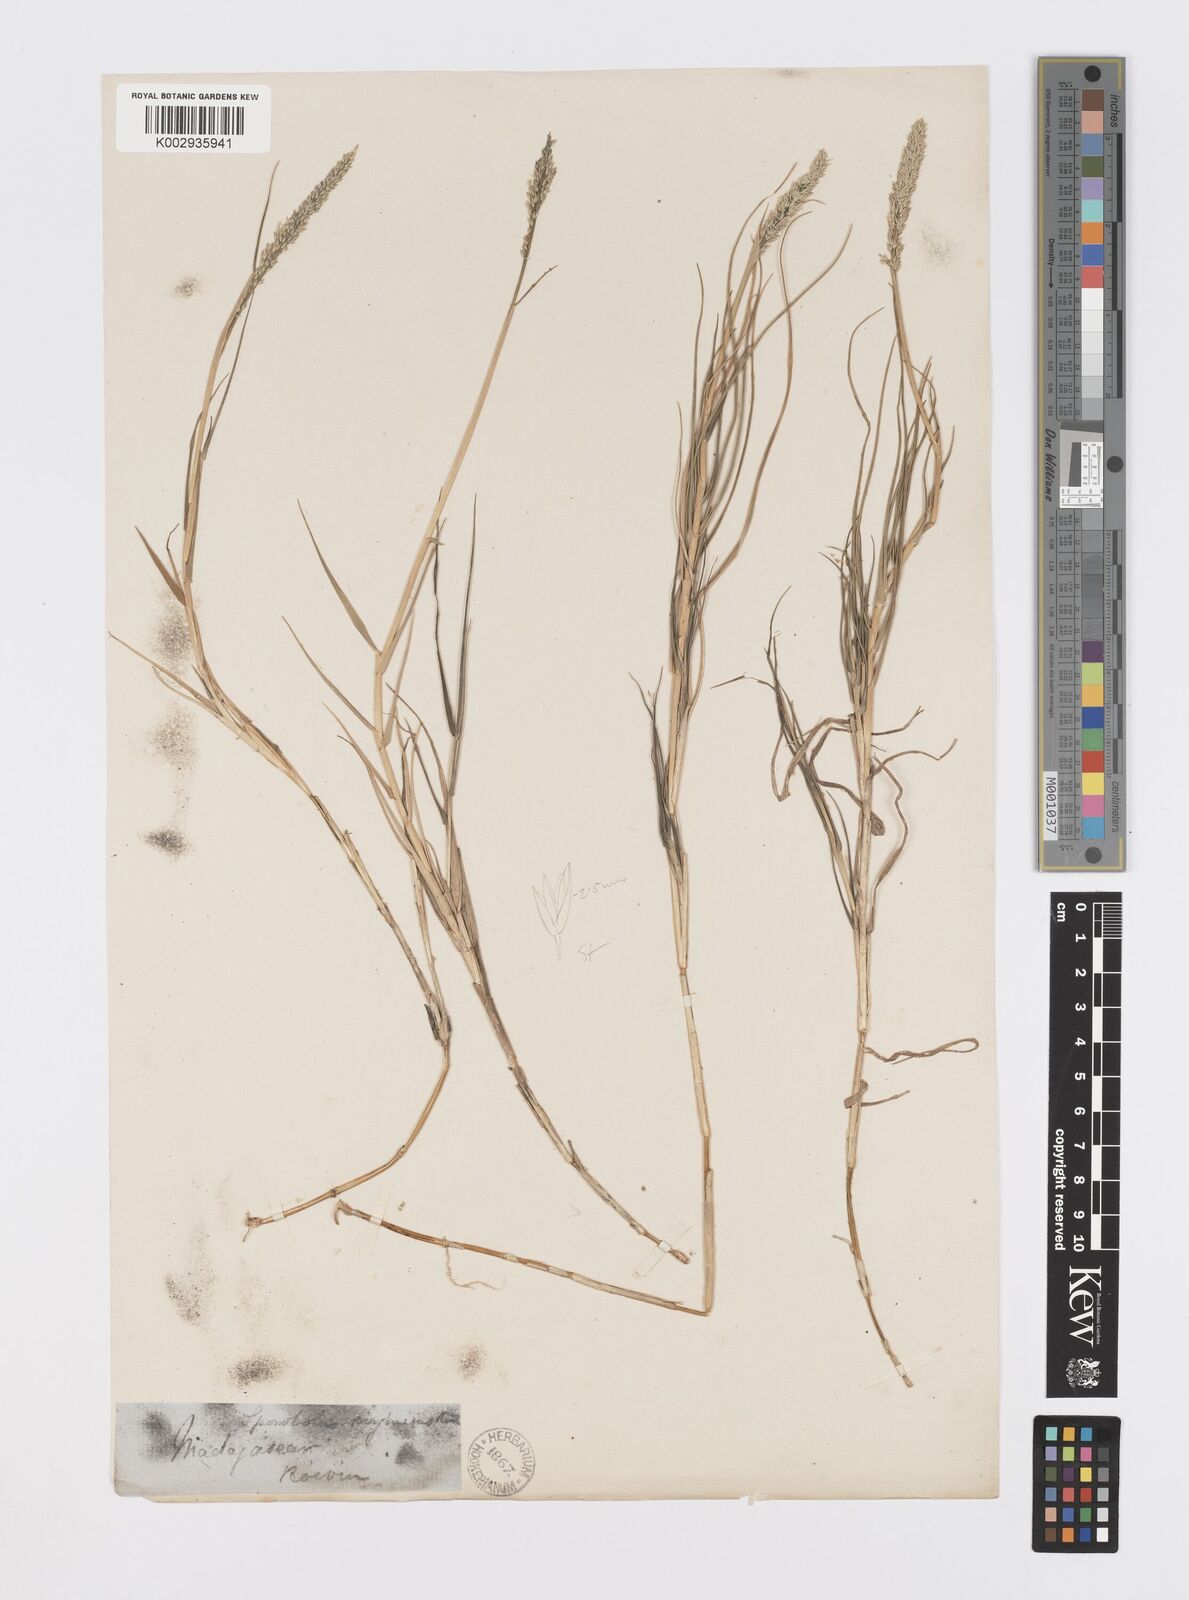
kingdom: Plantae
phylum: Tracheophyta
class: Liliopsida
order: Poales
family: Poaceae
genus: Sporobolus
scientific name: Sporobolus virginicus
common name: Beach dropseed
